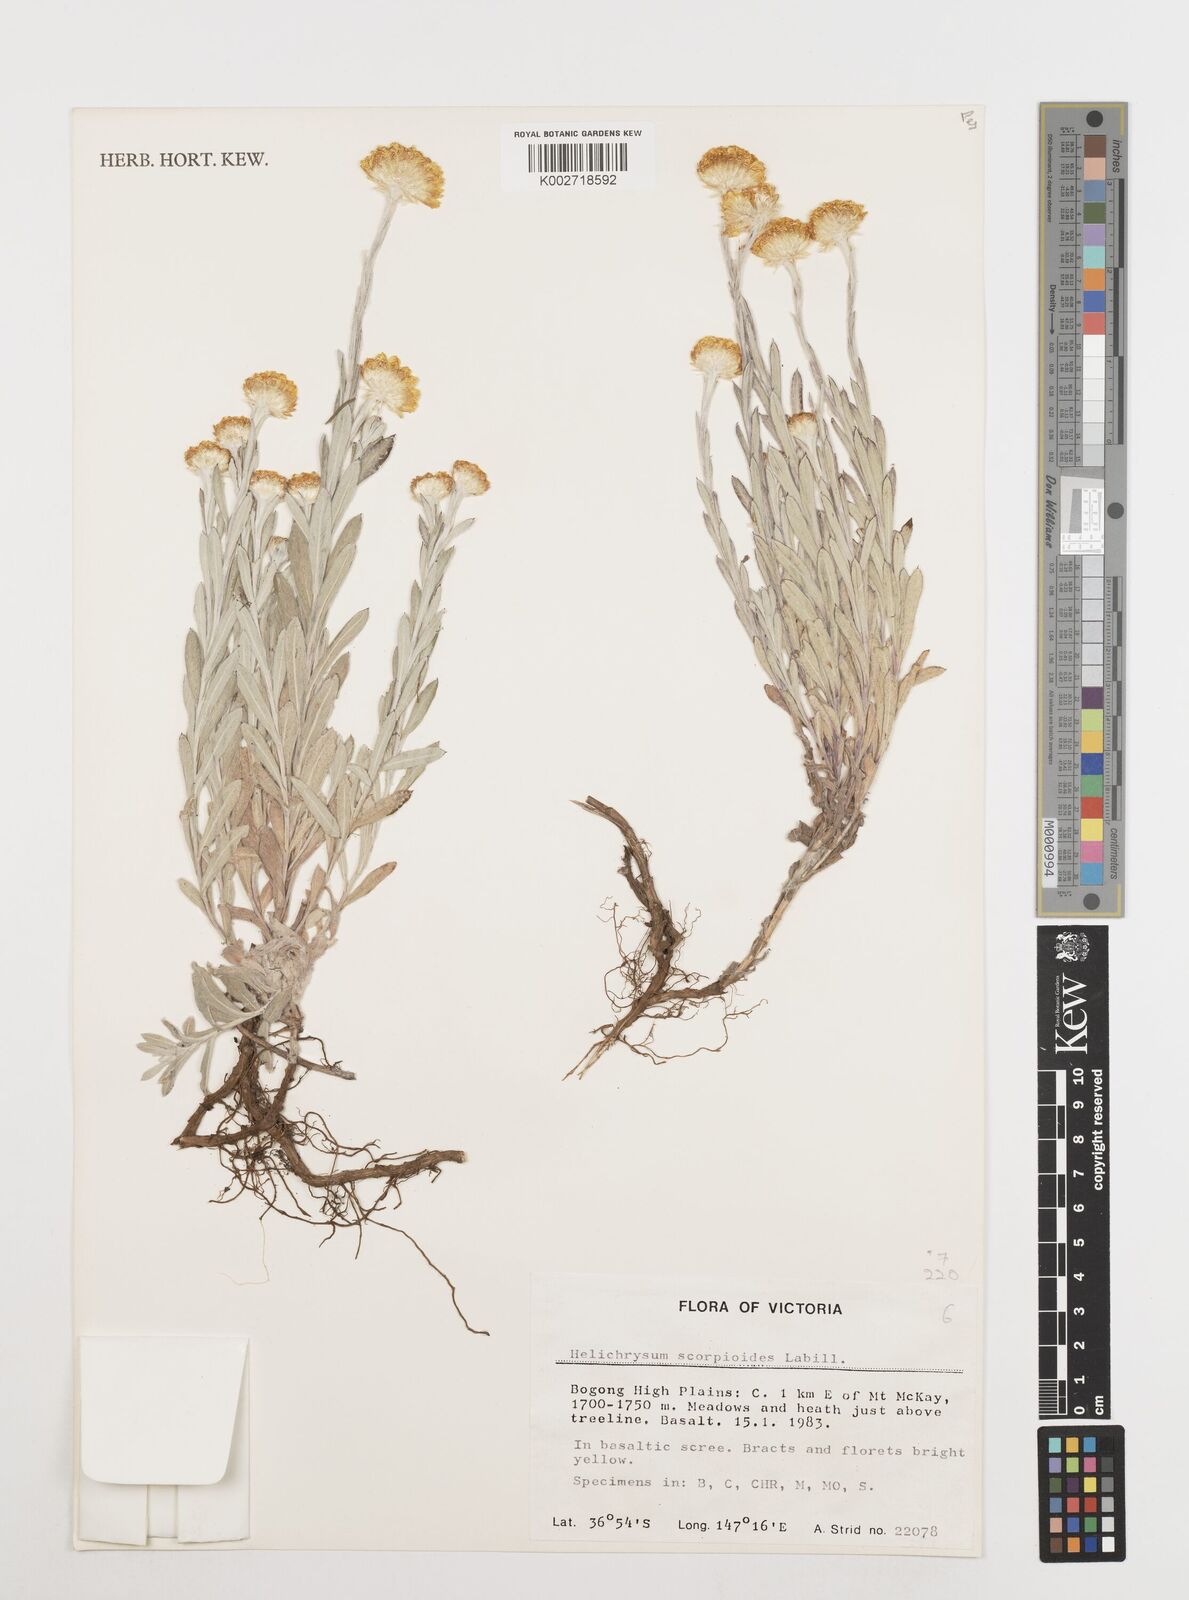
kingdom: Plantae
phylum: Tracheophyta
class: Magnoliopsida
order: Asterales
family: Asteraceae
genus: Coronidium
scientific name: Coronidium scorpioides
